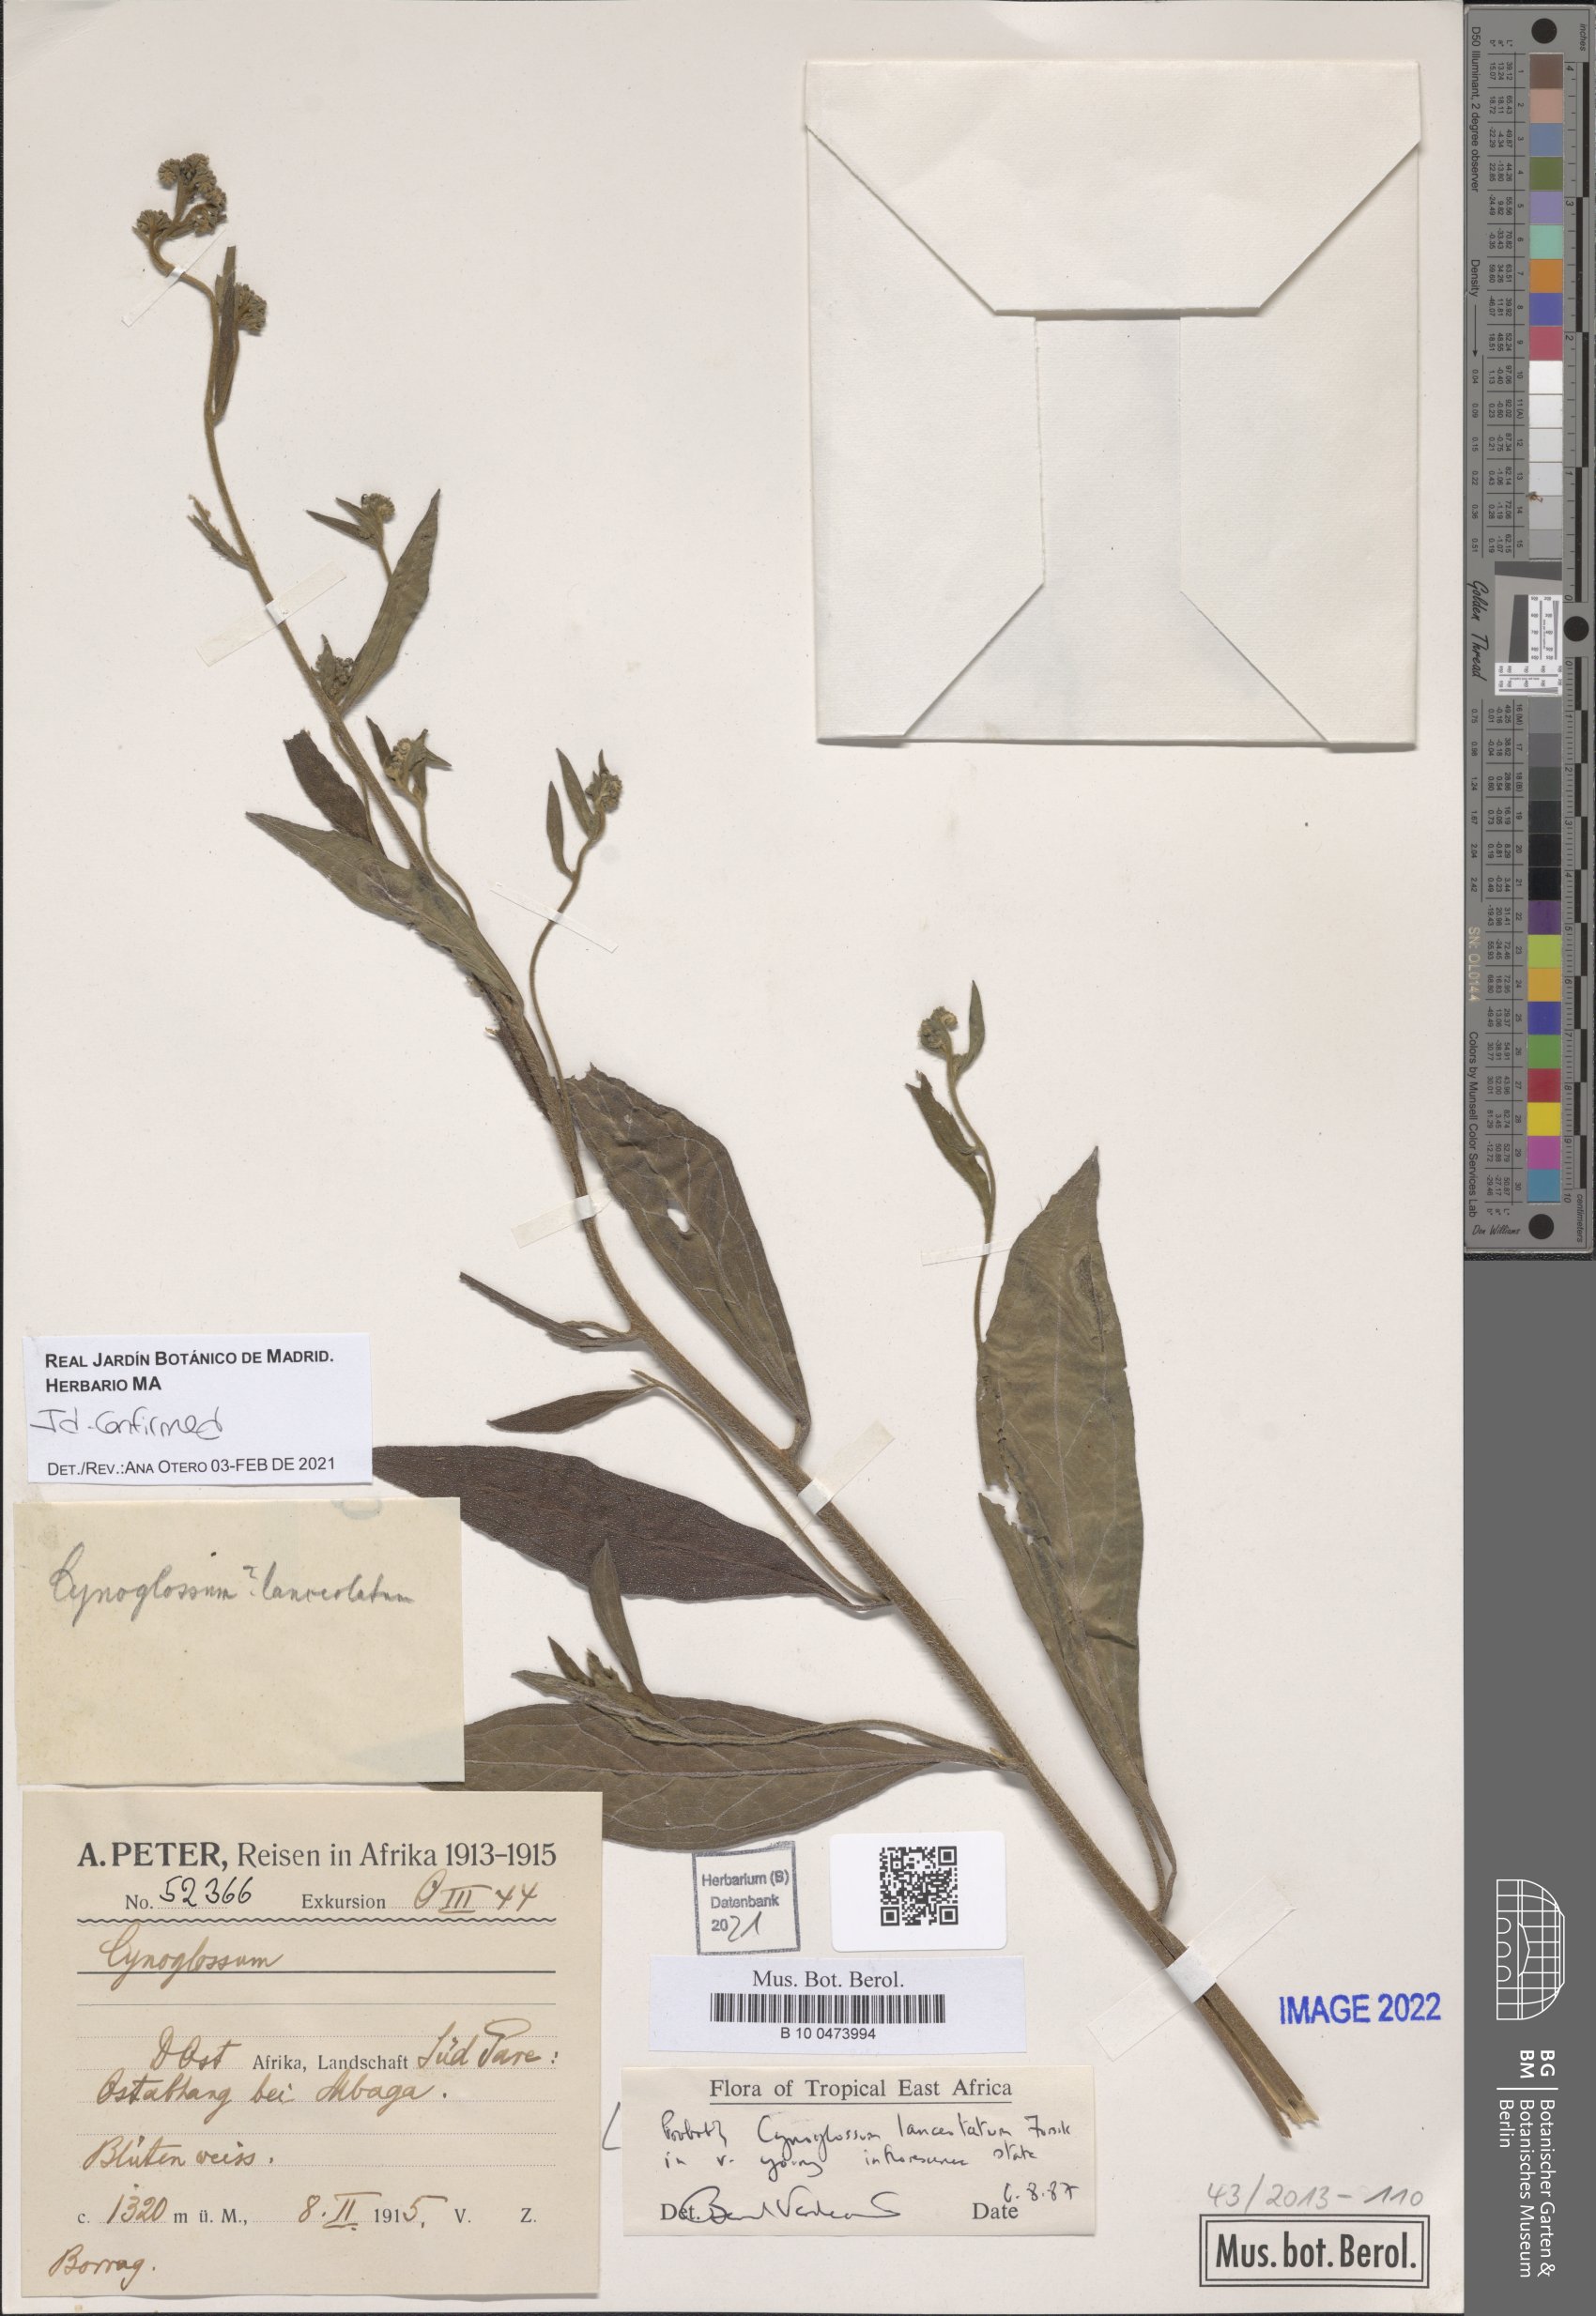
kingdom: Plantae
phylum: Tracheophyta
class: Magnoliopsida
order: Boraginales
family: Boraginaceae
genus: Paracynoglossum
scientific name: Paracynoglossum lanceolatum
